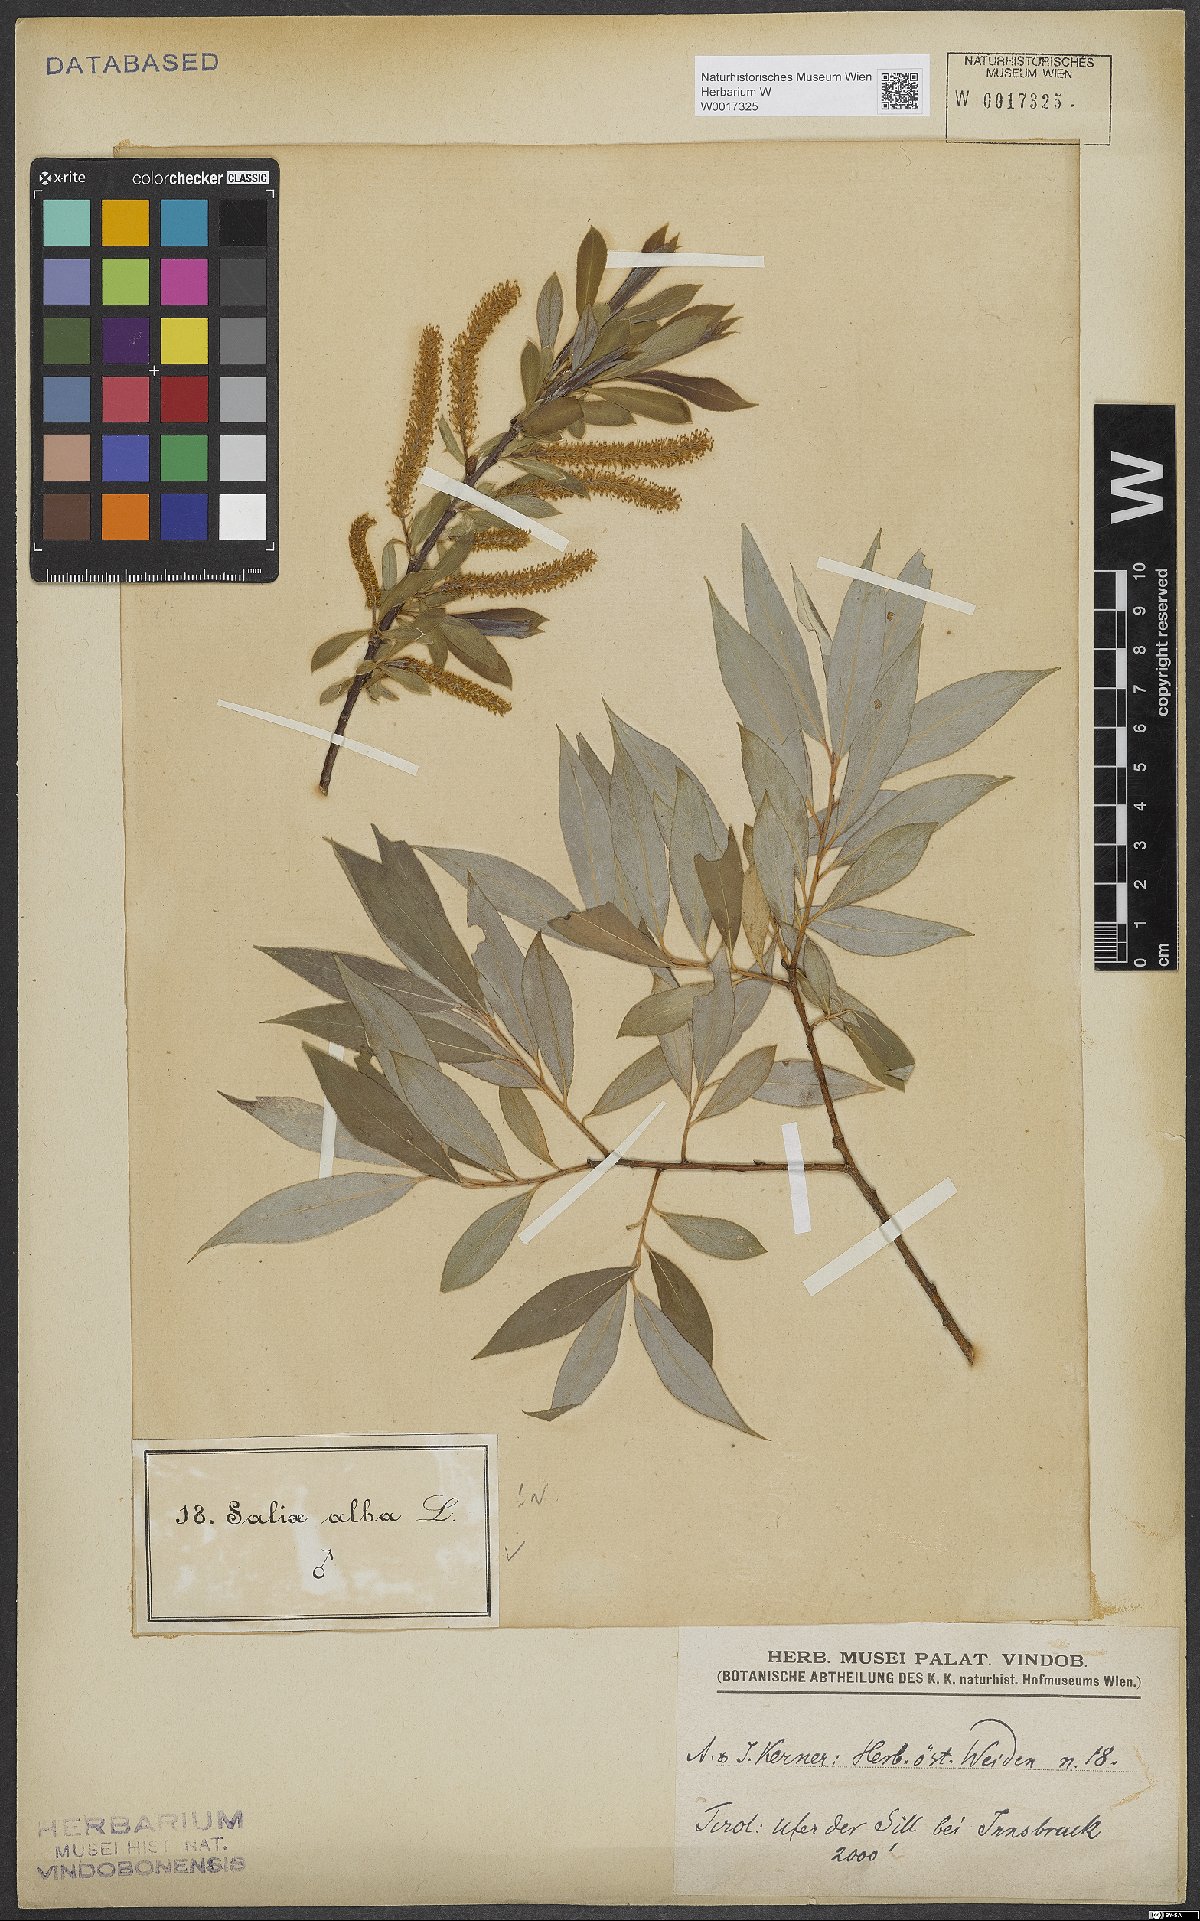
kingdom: Plantae
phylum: Tracheophyta
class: Magnoliopsida
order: Malpighiales
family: Salicaceae
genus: Salix
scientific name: Salix alba
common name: White willow
